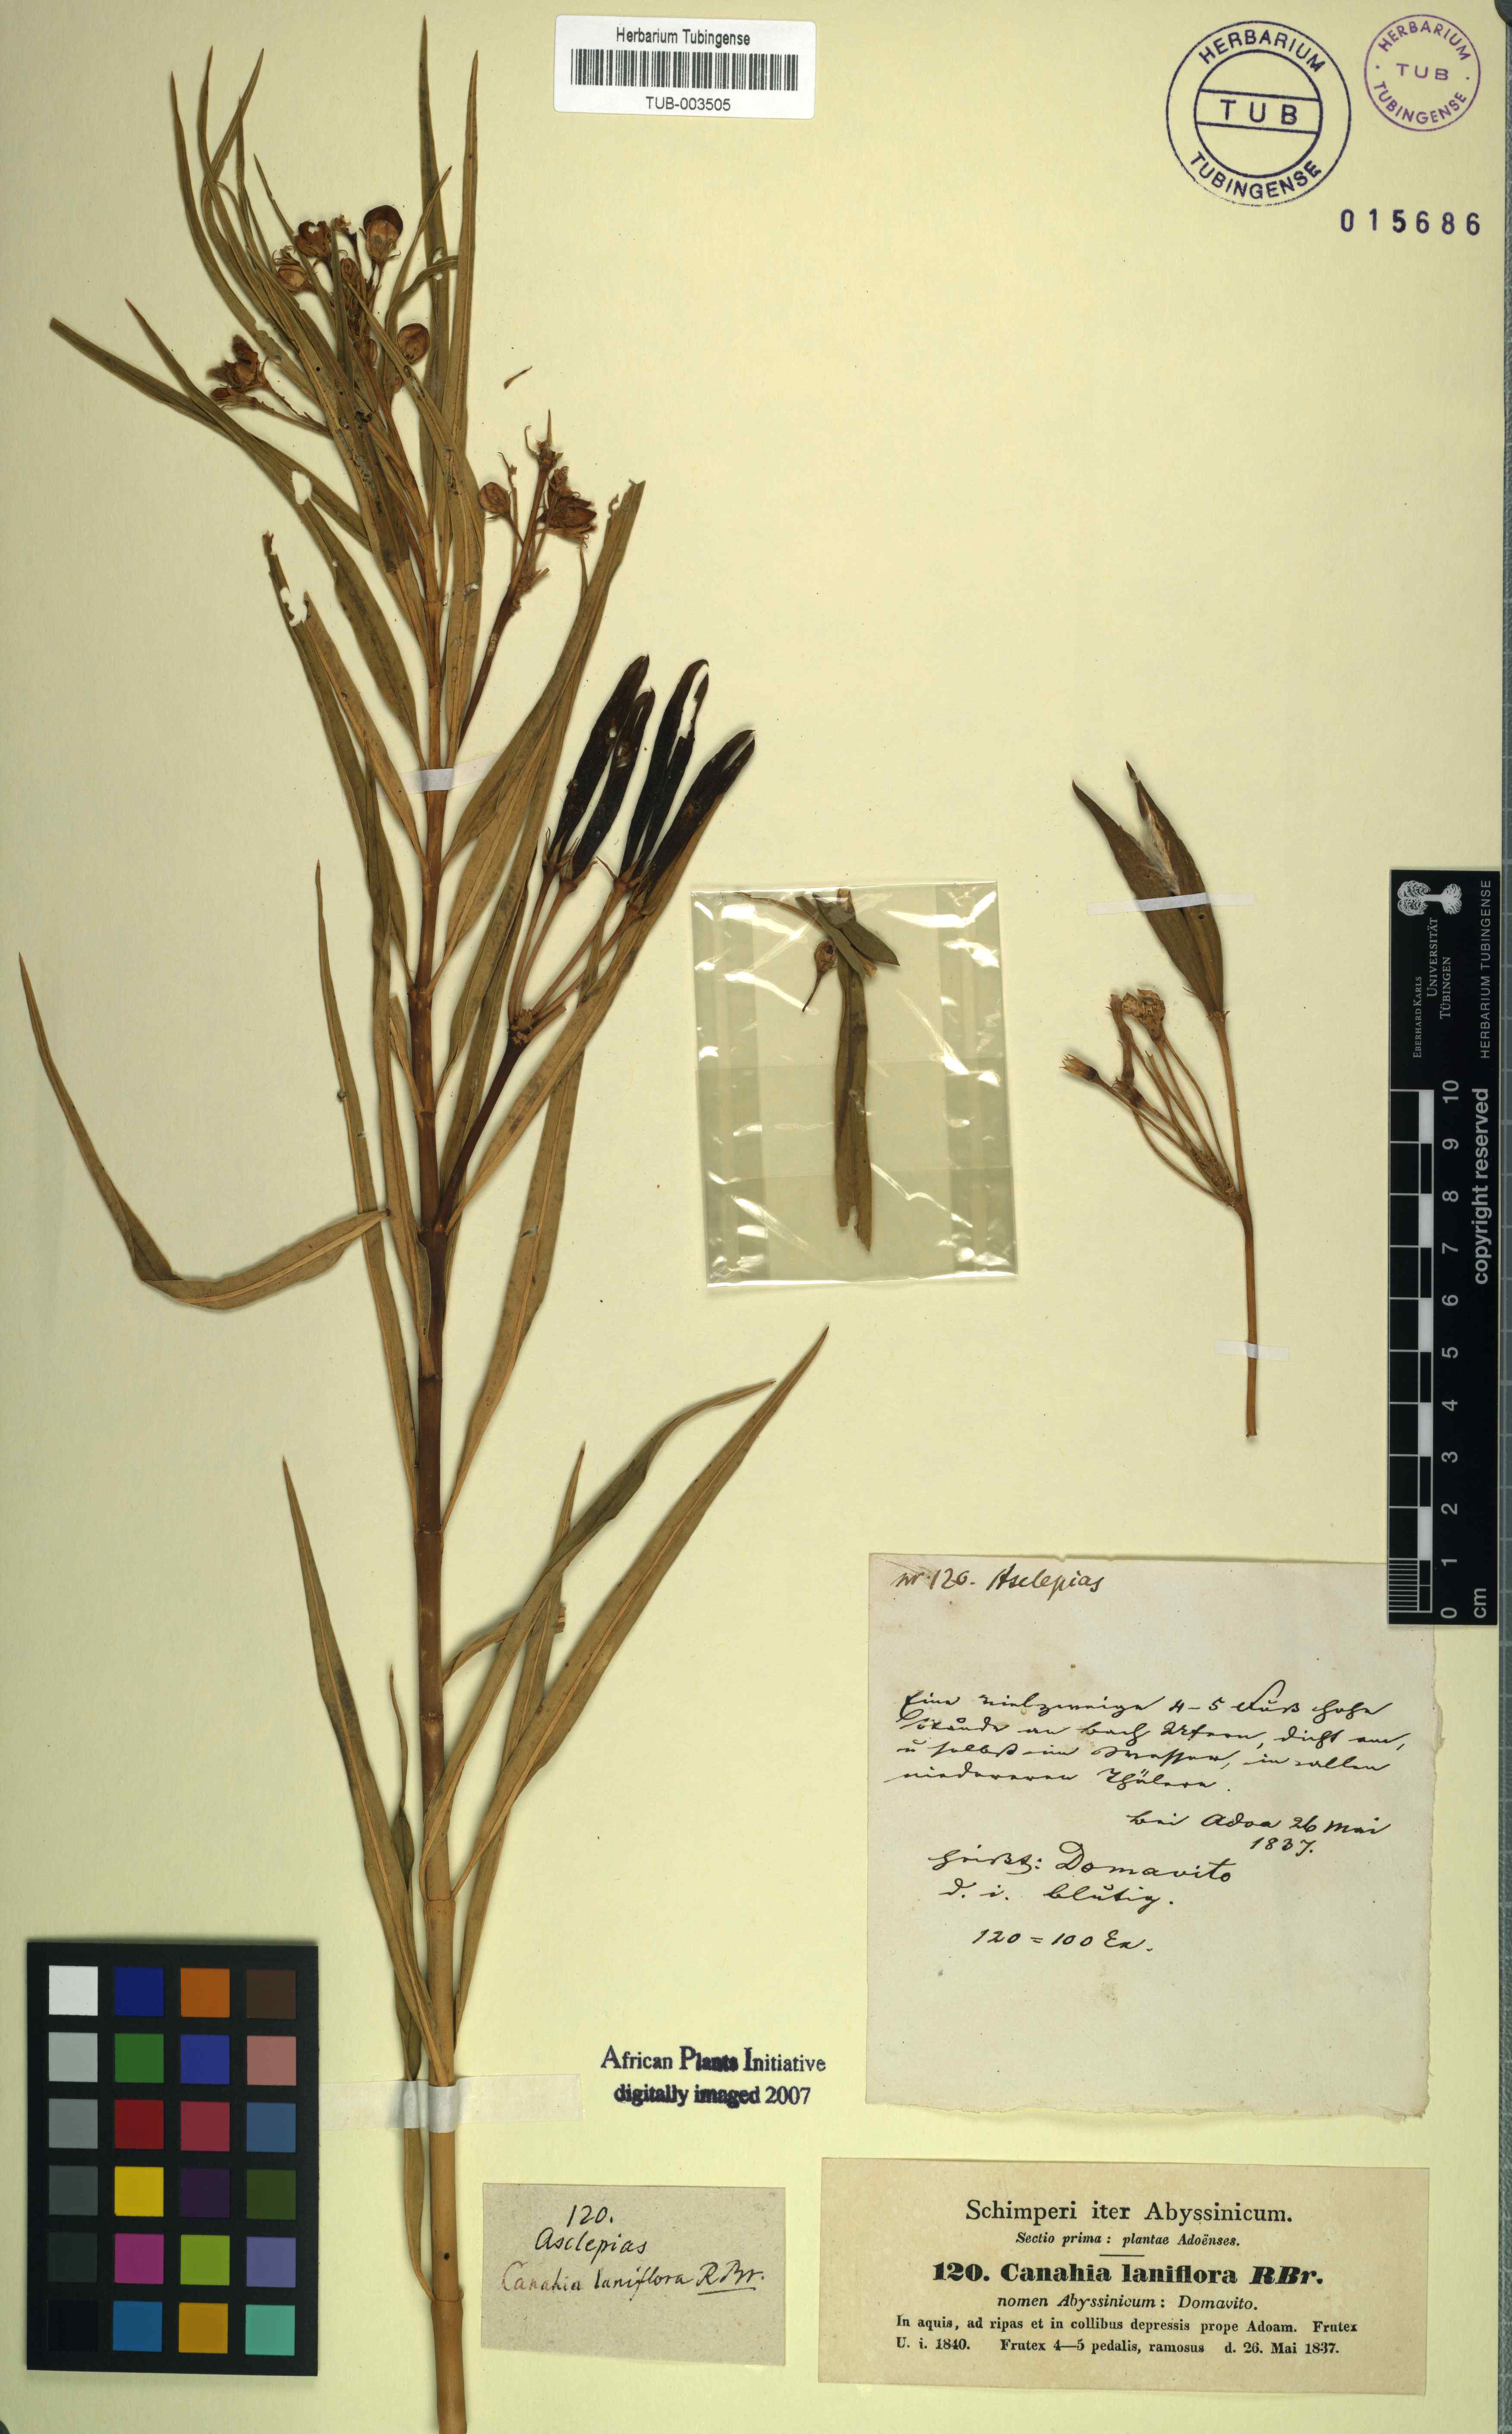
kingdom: Plantae
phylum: Tracheophyta
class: Magnoliopsida
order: Gentianales
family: Apocynaceae
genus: Kanahia
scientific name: Kanahia laniflora
